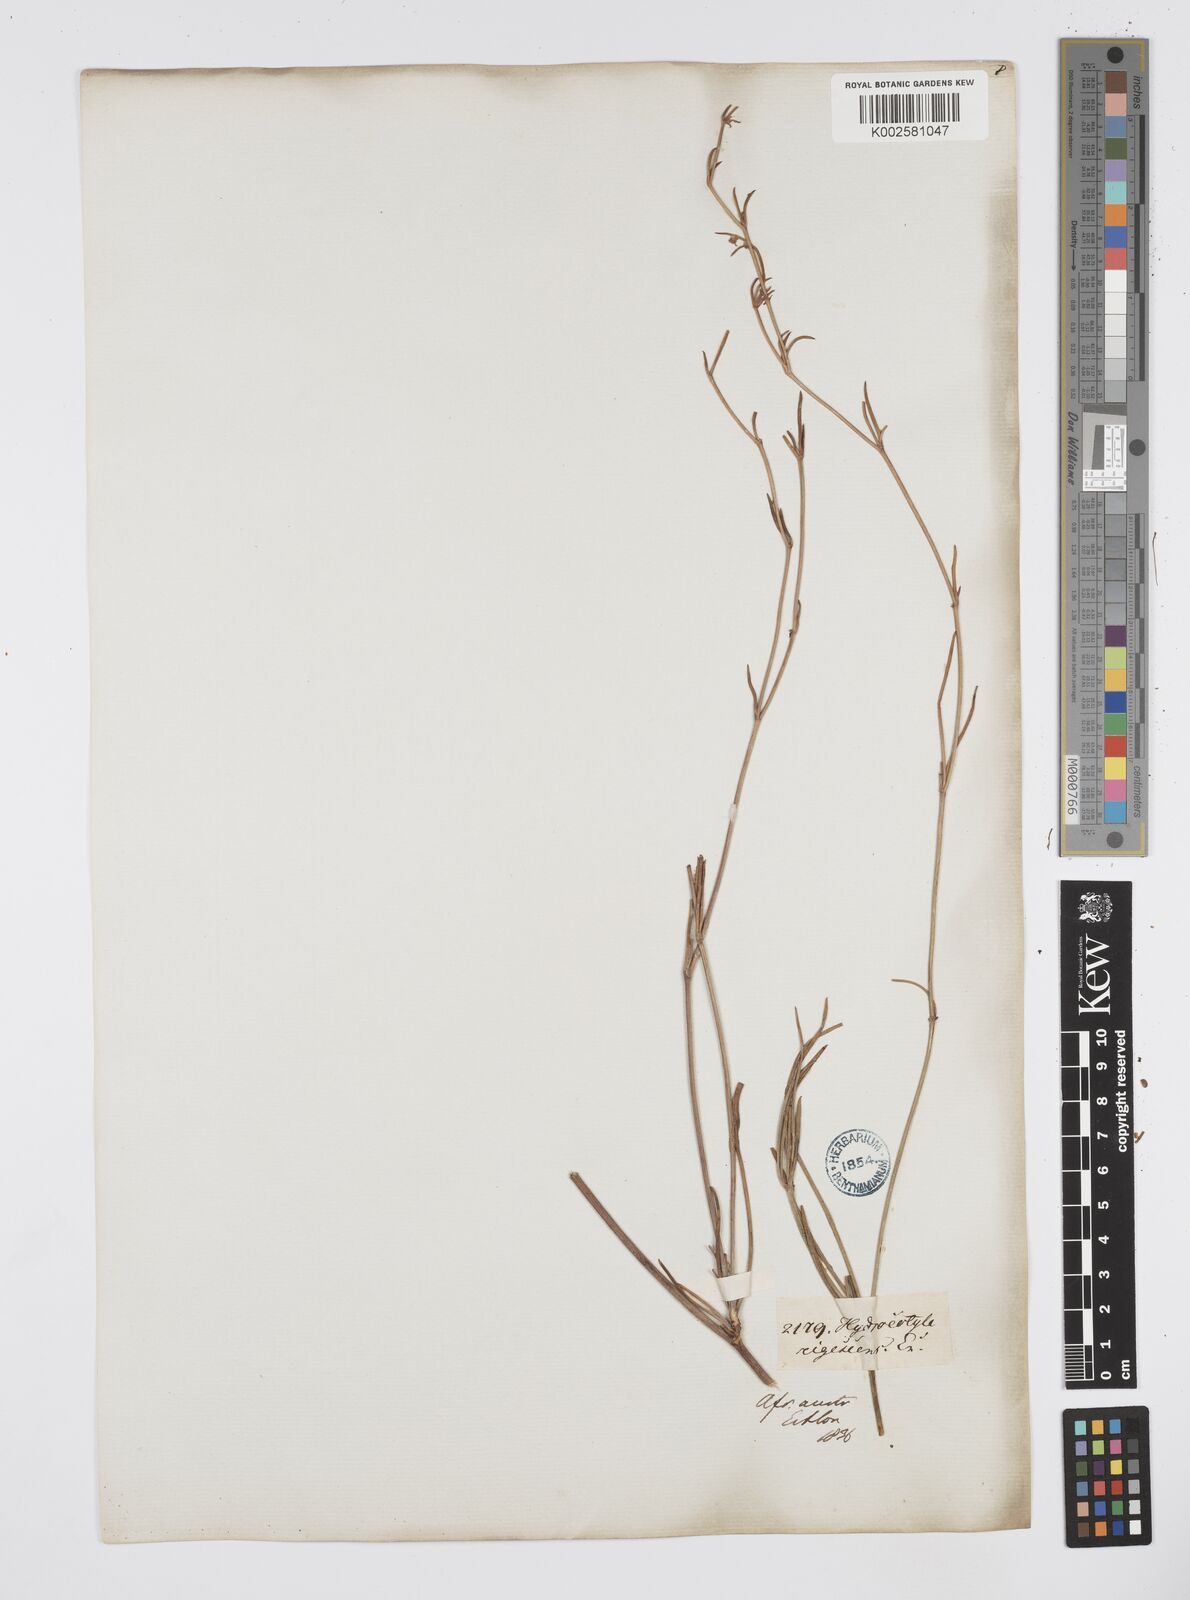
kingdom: Plantae
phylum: Tracheophyta
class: Magnoliopsida
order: Apiales
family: Apiaceae
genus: Centella
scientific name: Centella glabrata
